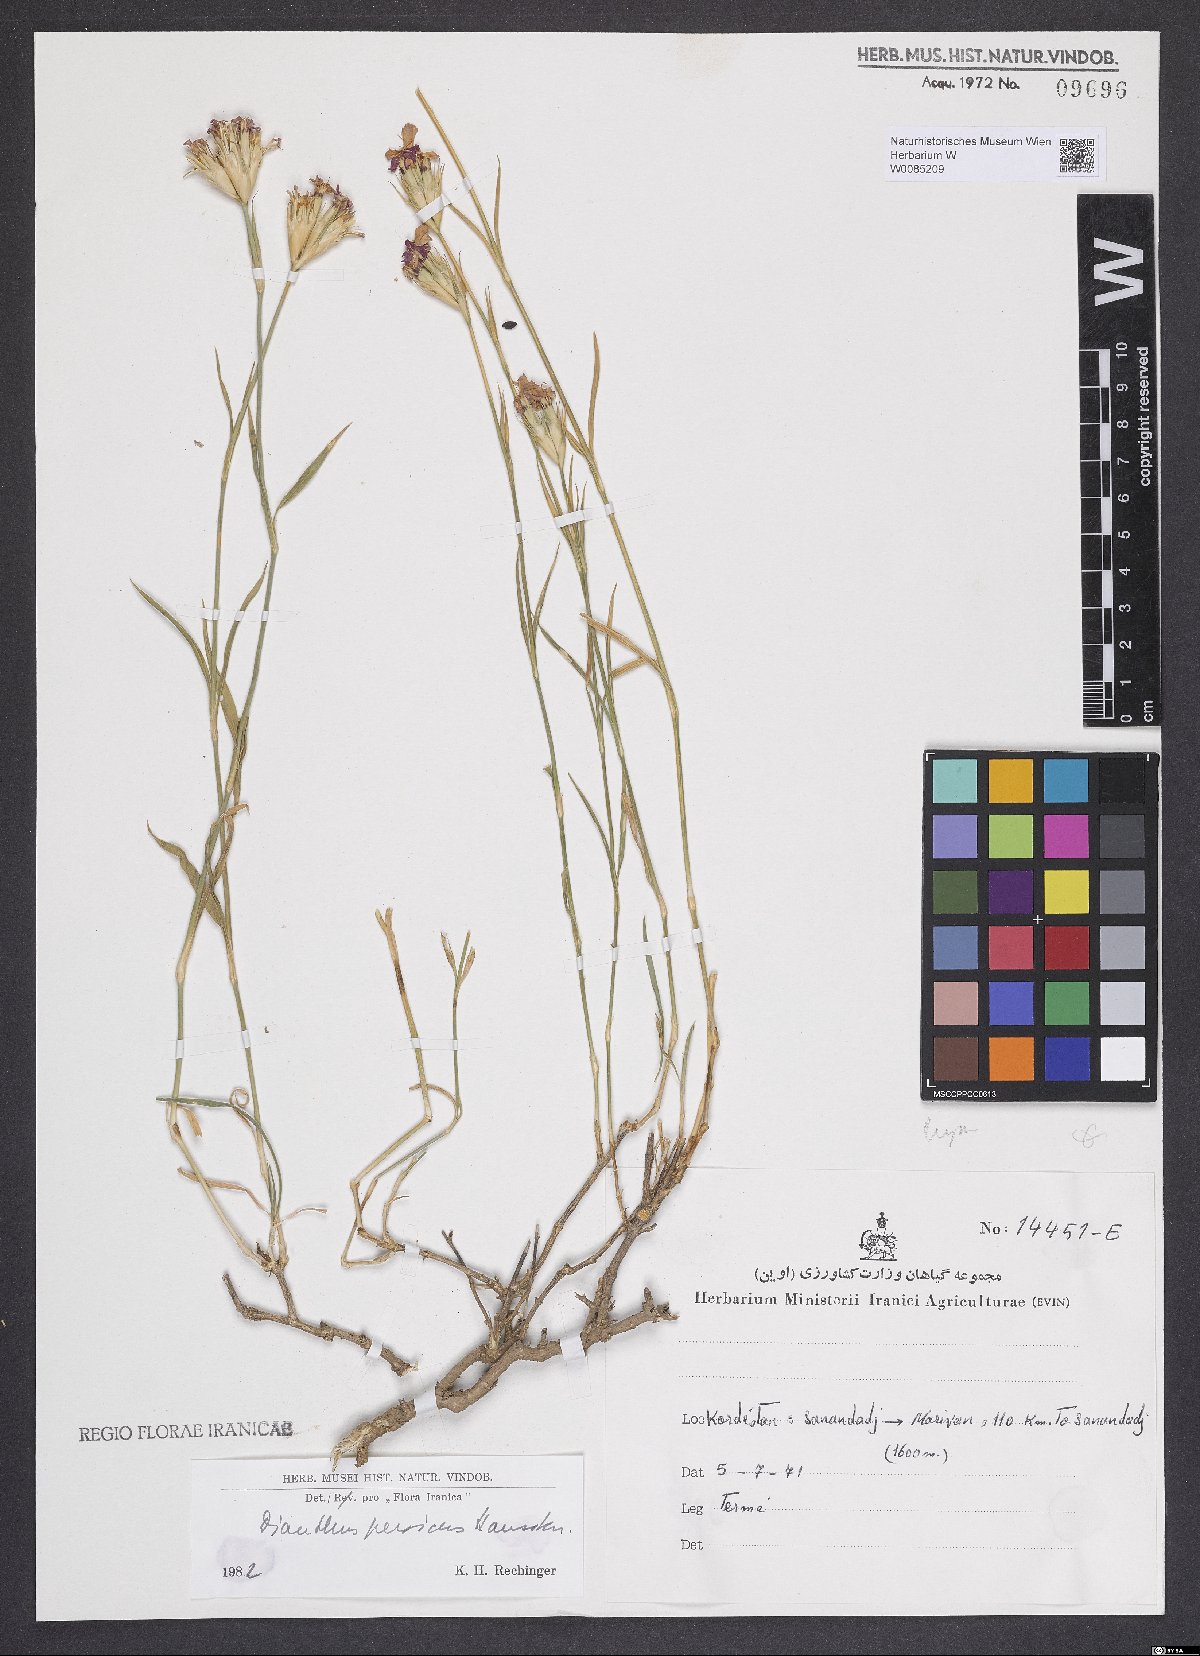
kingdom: Plantae
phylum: Tracheophyta
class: Magnoliopsida
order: Caryophyllales
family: Caryophyllaceae
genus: Dianthus
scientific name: Dianthus persicus
